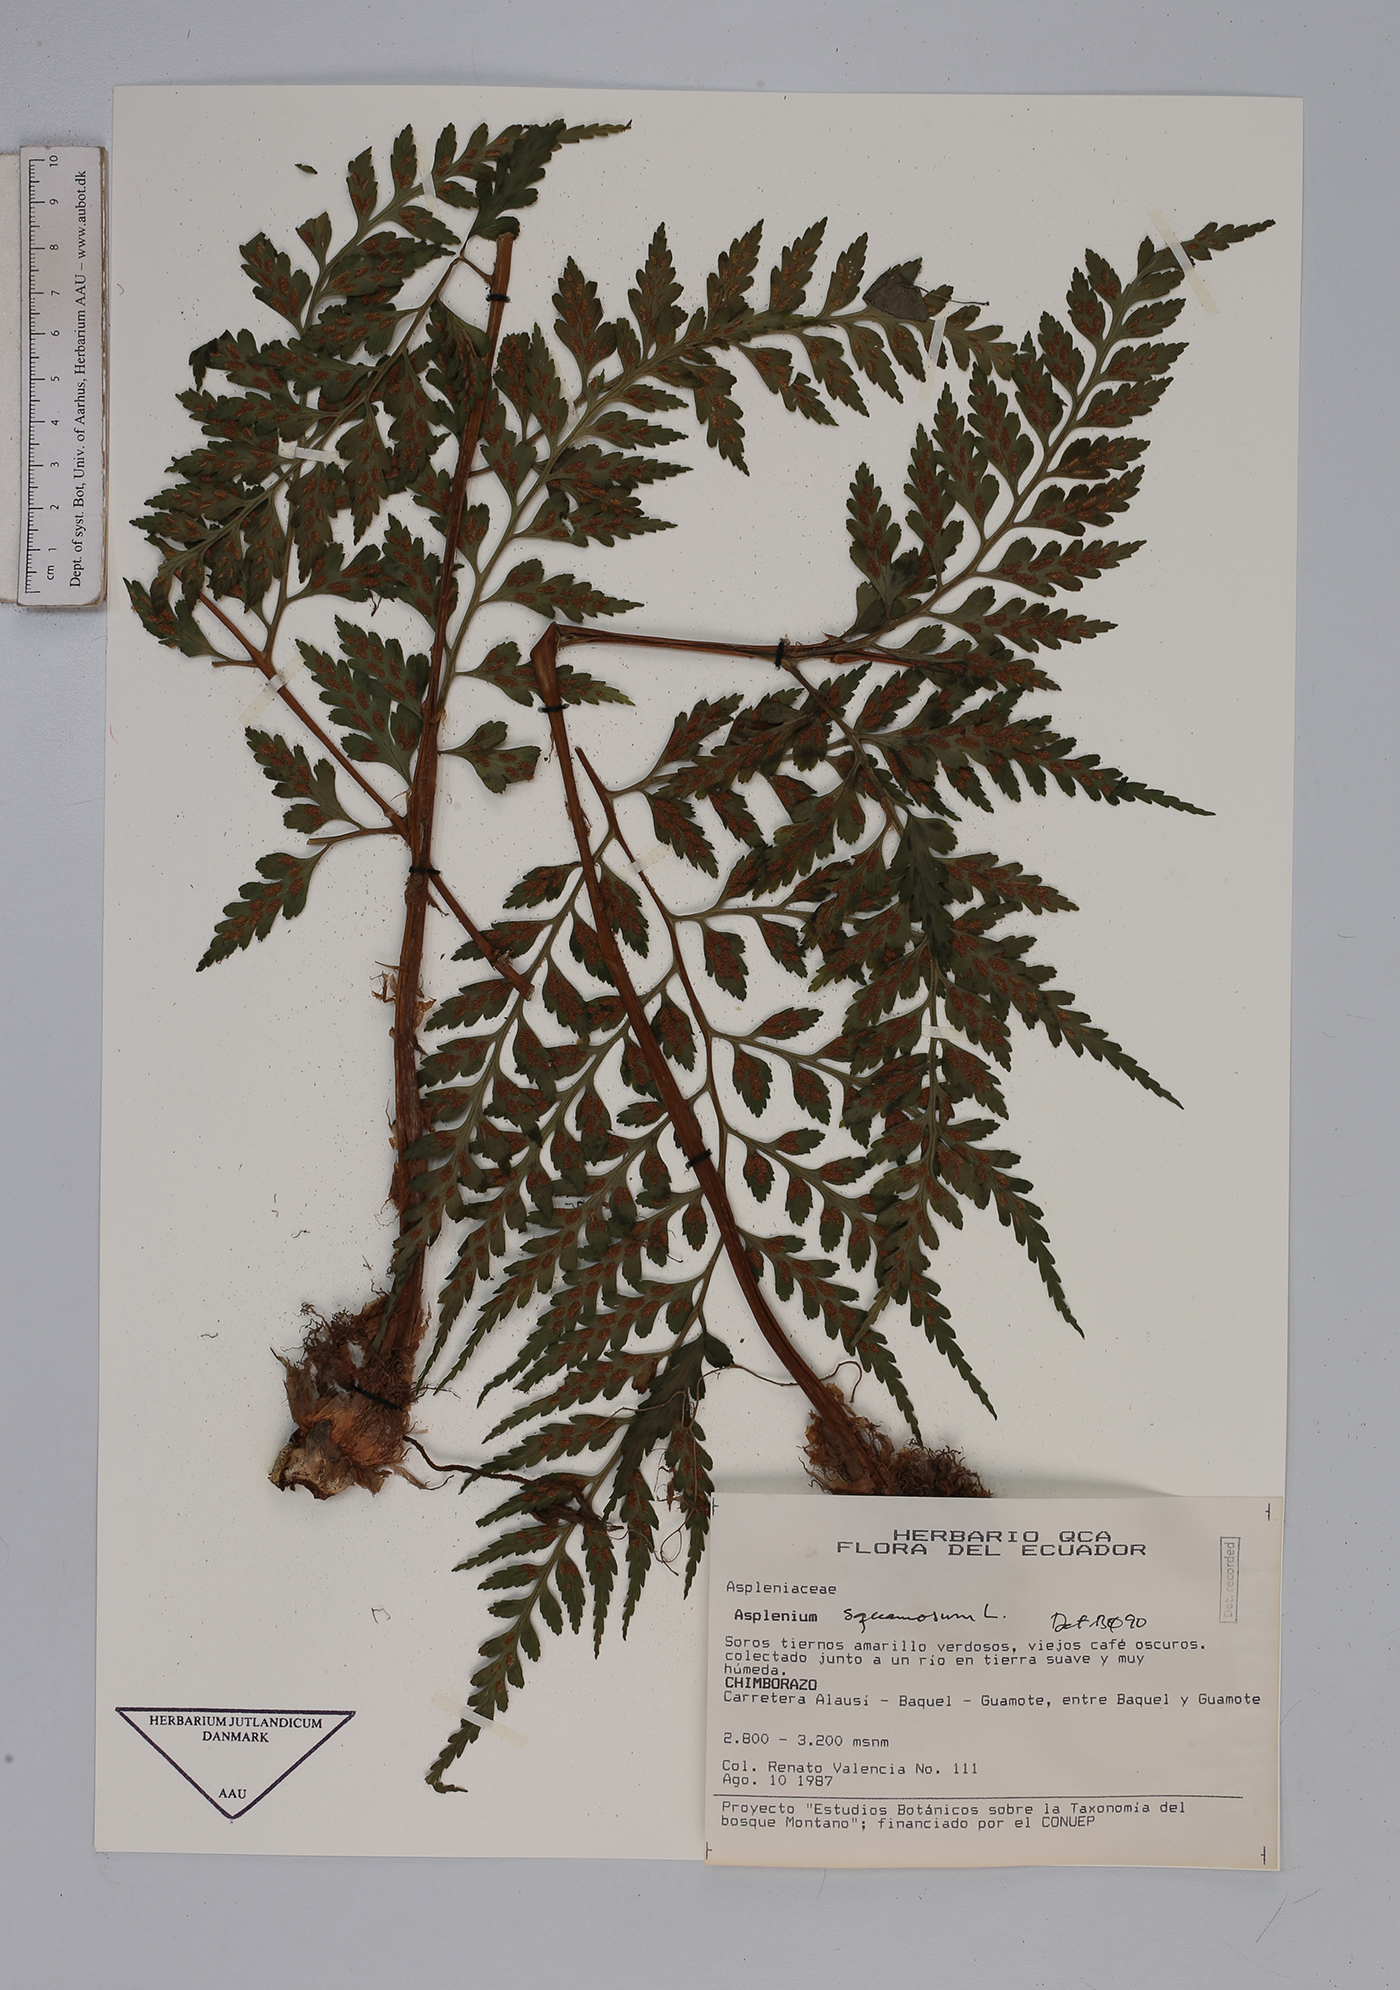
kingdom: Plantae
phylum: Tracheophyta
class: Polypodiopsida
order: Polypodiales
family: Aspleniaceae
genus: Asplenium
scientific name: Asplenium squamosum
